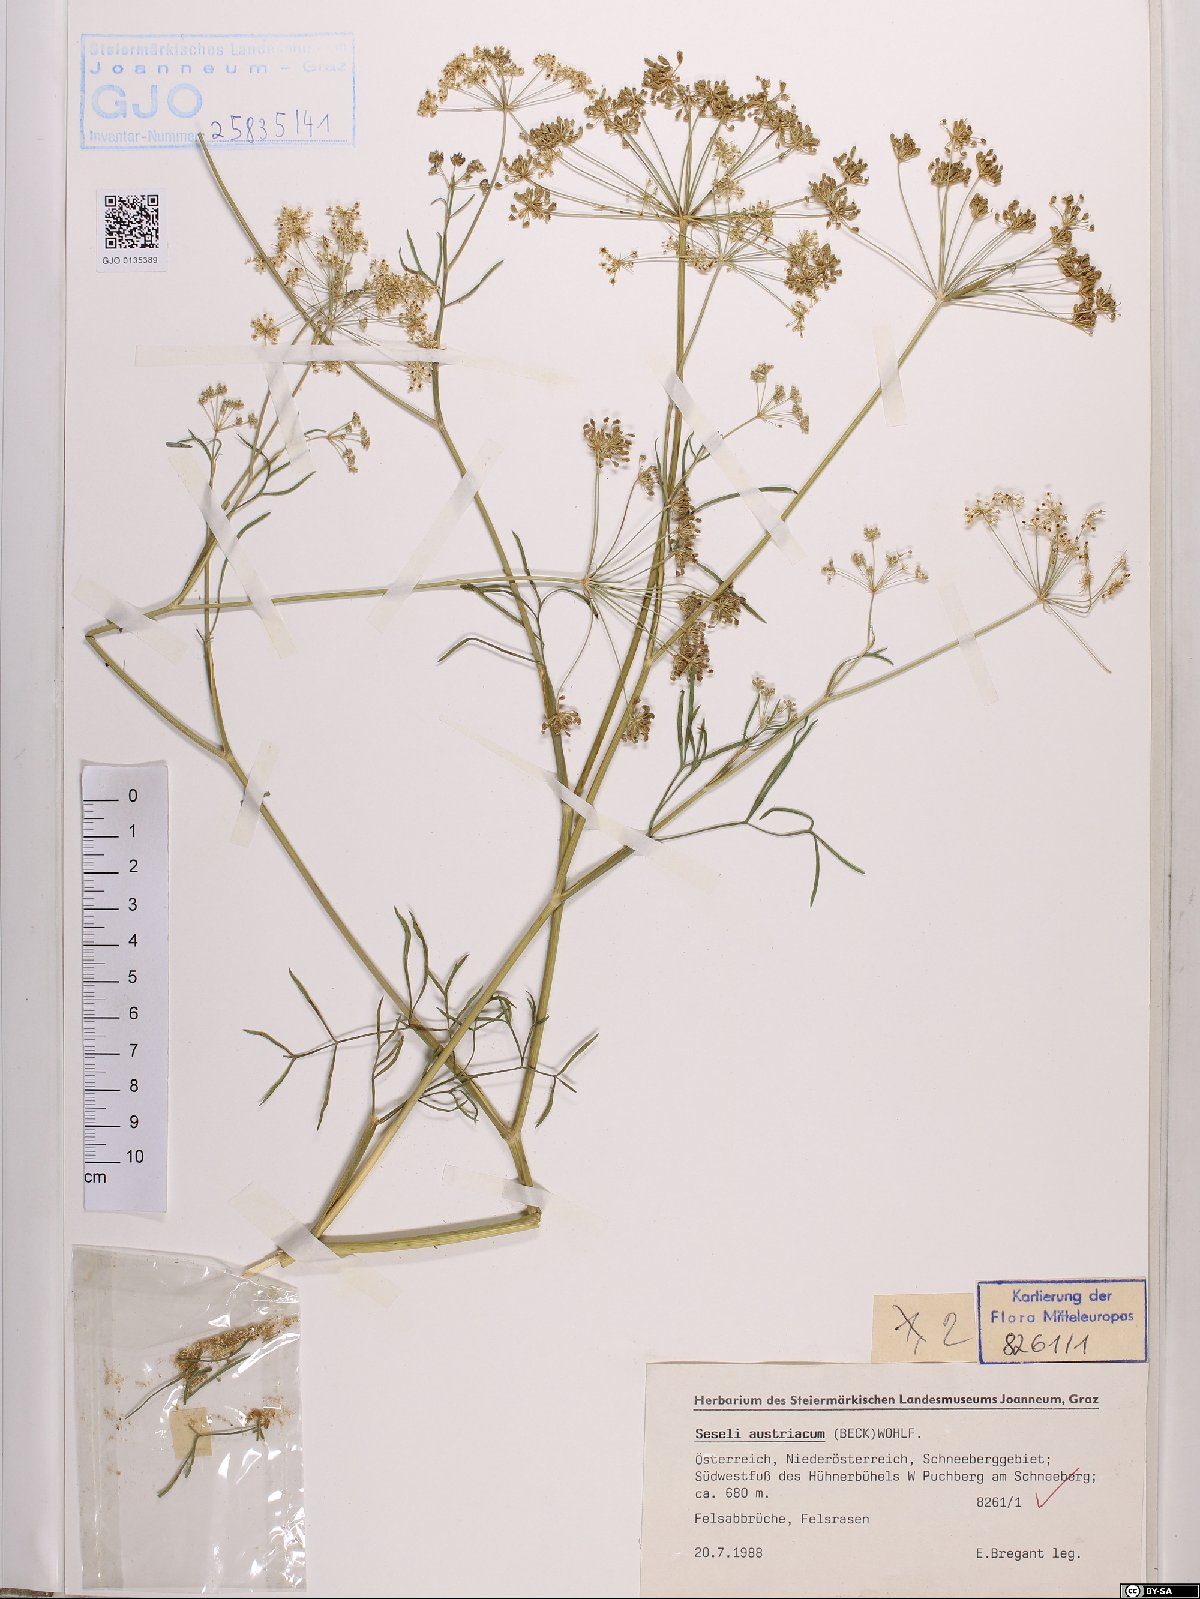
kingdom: Plantae
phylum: Tracheophyta
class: Magnoliopsida
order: Apiales
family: Apiaceae
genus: Seseli
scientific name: Seseli austriacum
